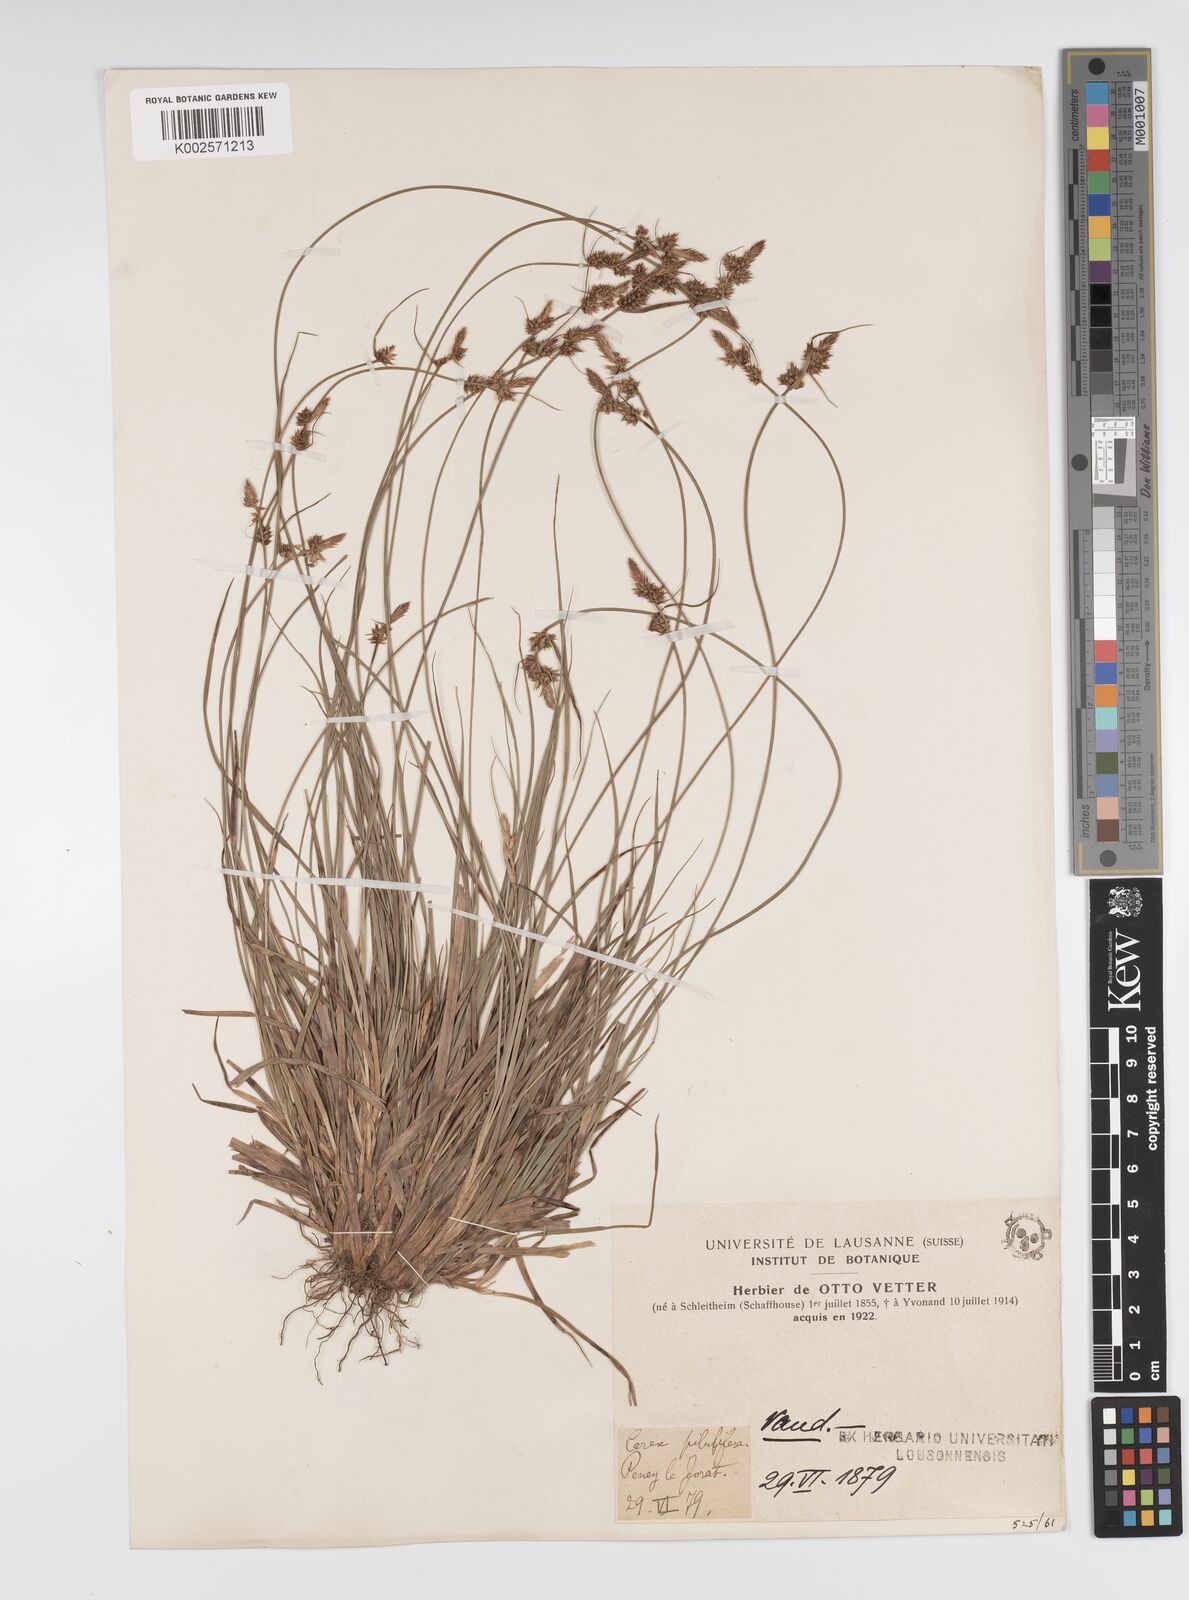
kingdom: Plantae
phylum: Tracheophyta
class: Liliopsida
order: Poales
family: Cyperaceae
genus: Carex
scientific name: Carex pilulifera
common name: Pill sedge
